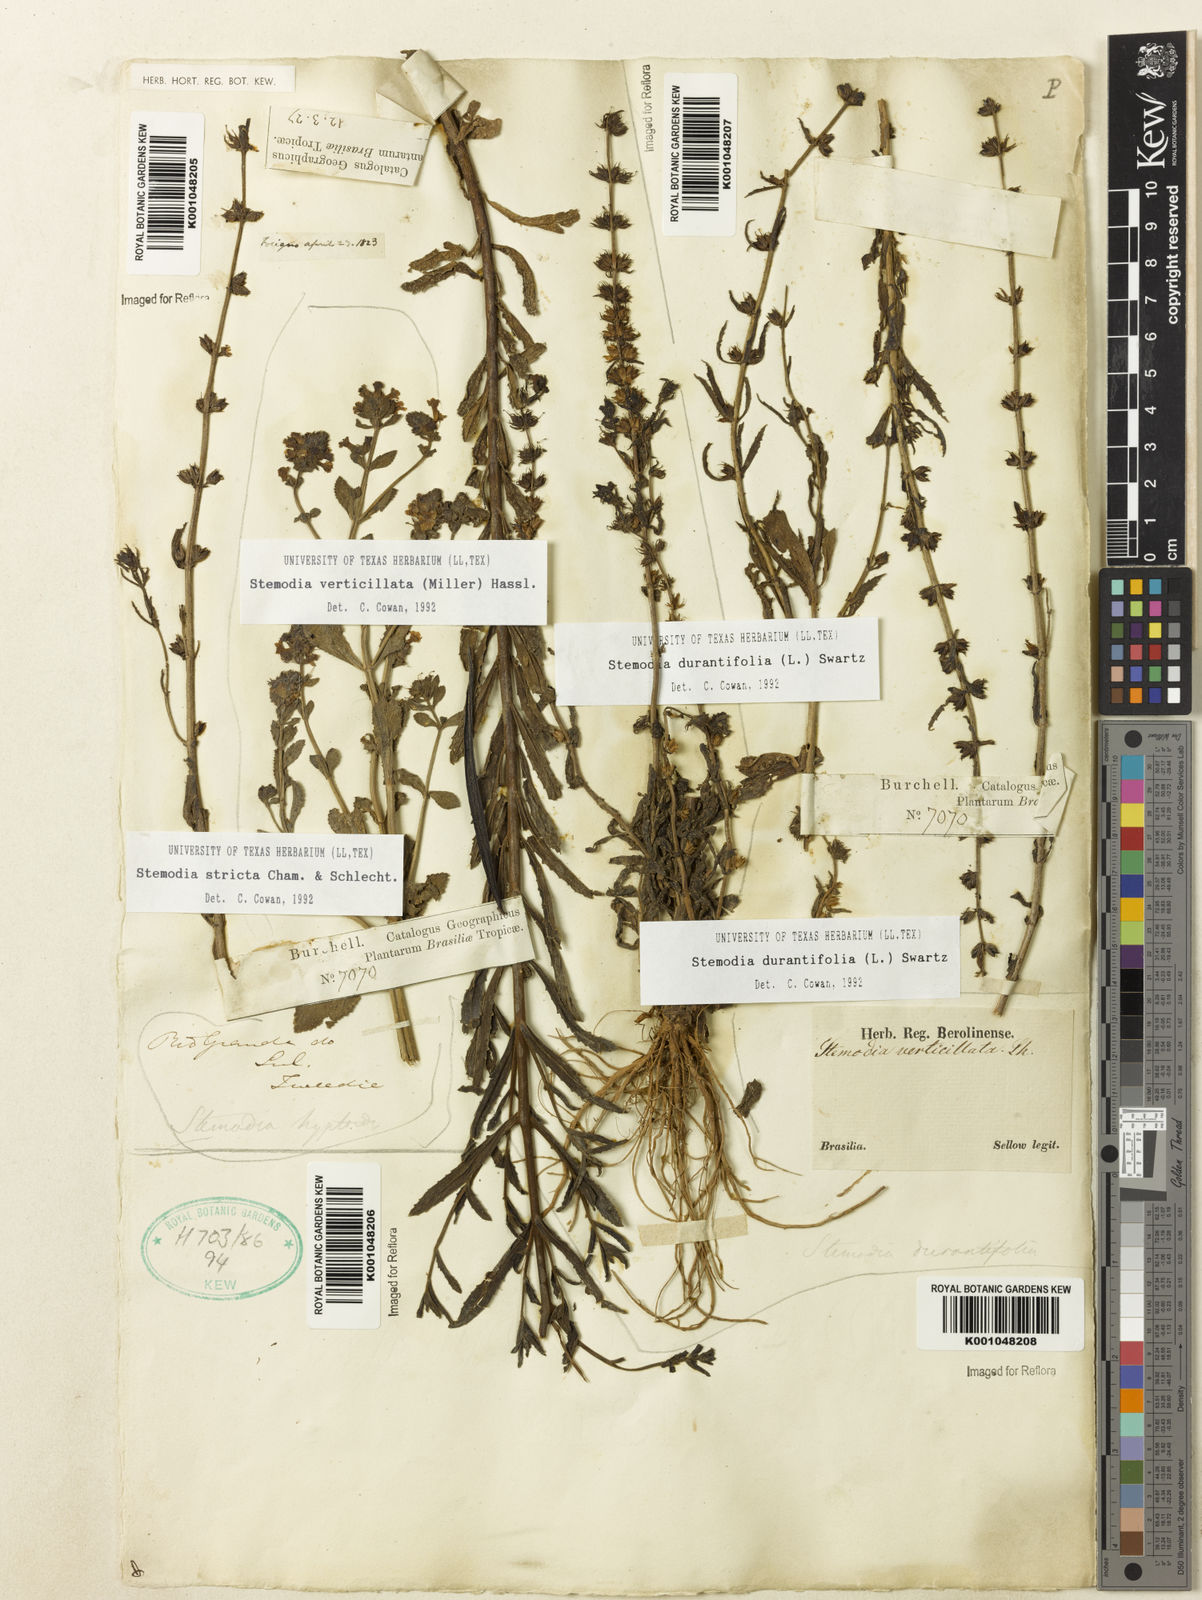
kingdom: Plantae
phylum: Tracheophyta
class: Magnoliopsida
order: Lamiales
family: Plantaginaceae
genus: Stemodia
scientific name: Stemodia durantifolia
